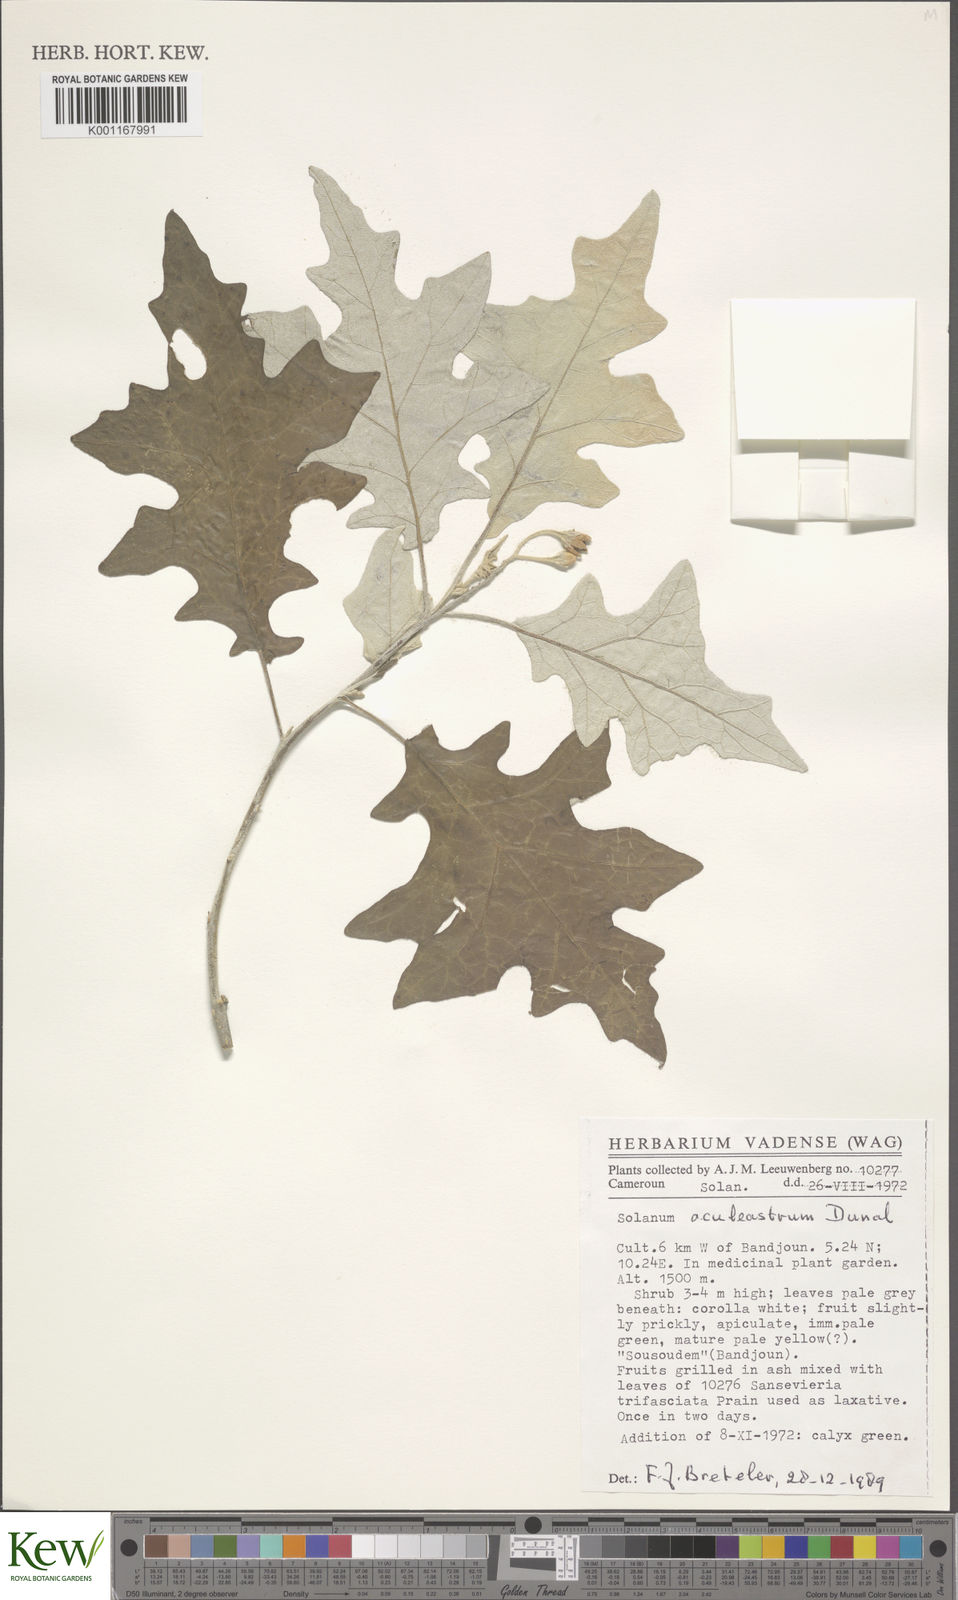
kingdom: Plantae
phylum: Tracheophyta
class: Magnoliopsida
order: Solanales
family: Solanaceae
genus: Solanum
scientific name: Solanum aculeastrum
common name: Goat bitter-apple
